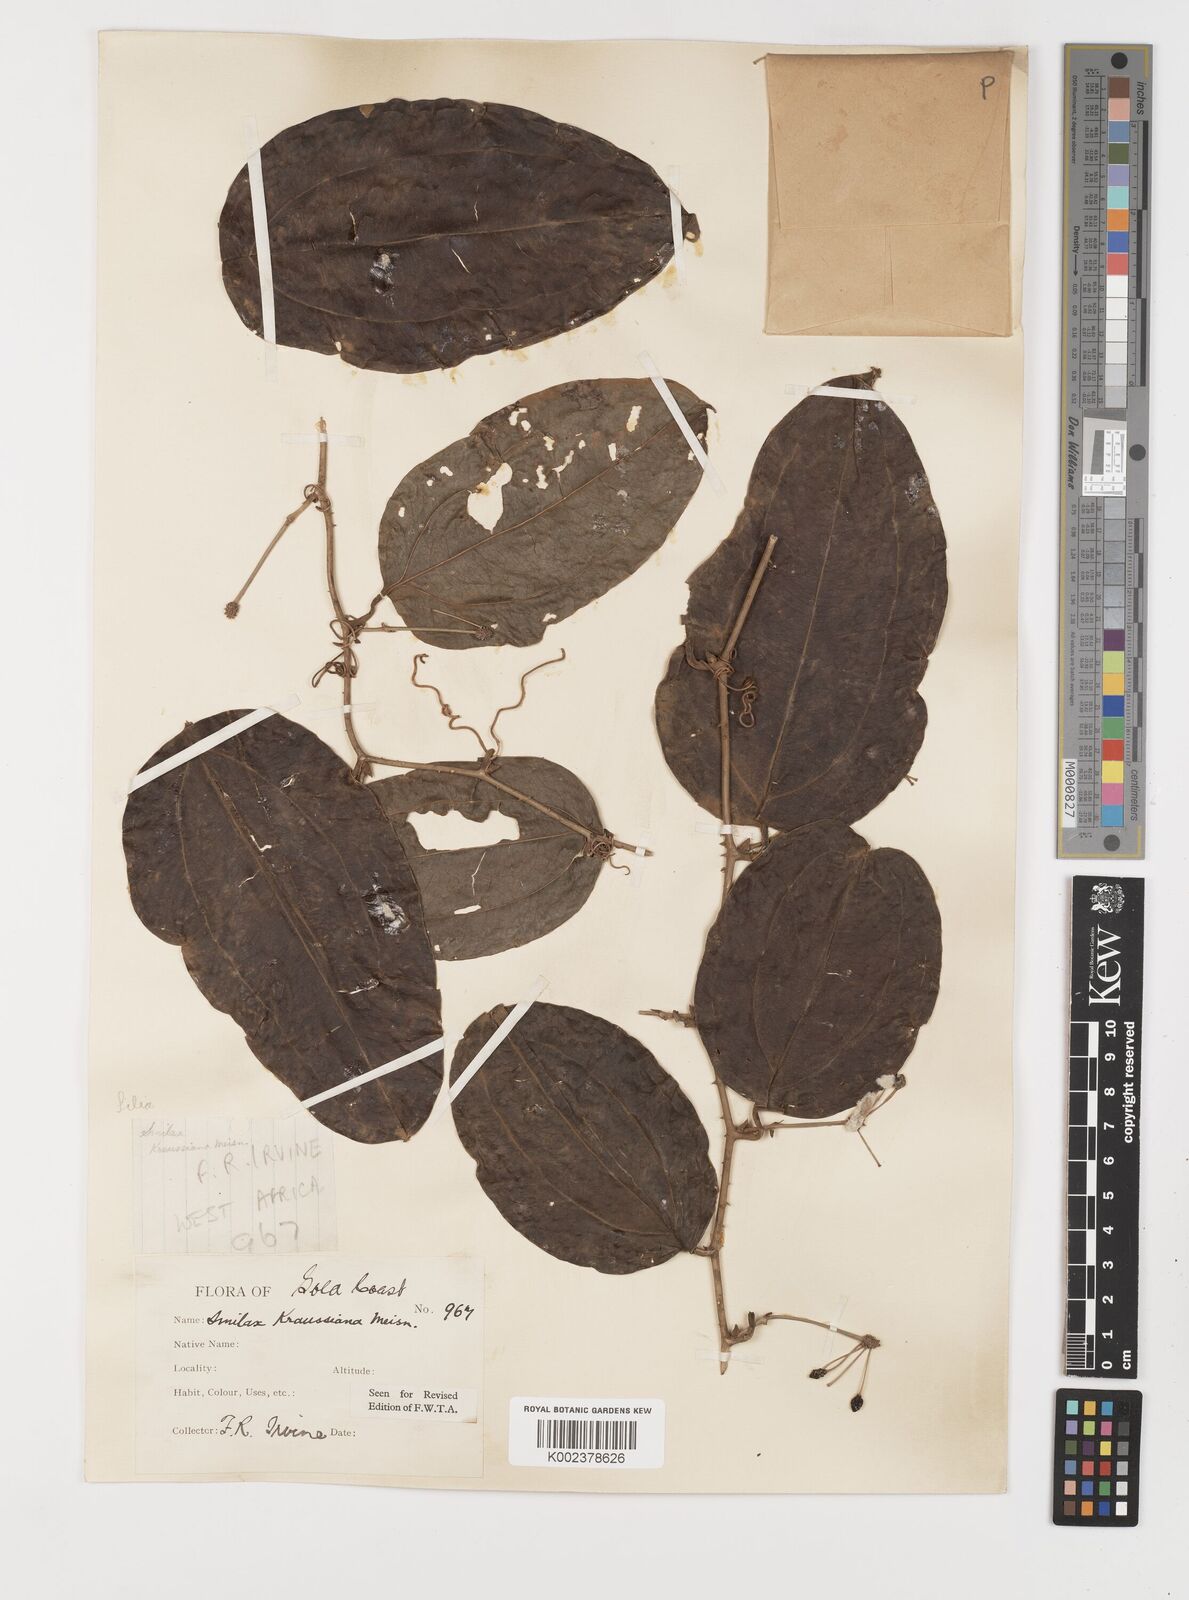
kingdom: Plantae
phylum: Tracheophyta
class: Liliopsida
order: Liliales
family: Smilacaceae
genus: Smilax
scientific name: Smilax anceps
